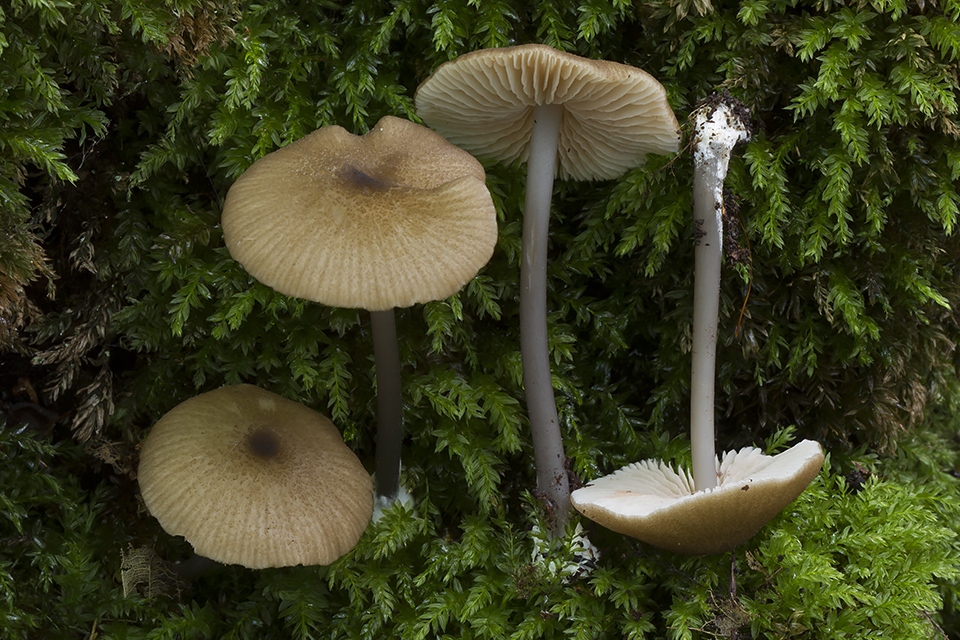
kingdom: Fungi
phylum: Basidiomycota
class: Agaricomycetes
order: Agaricales
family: Entolomataceae
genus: Entoloma
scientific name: Entoloma anatinum
